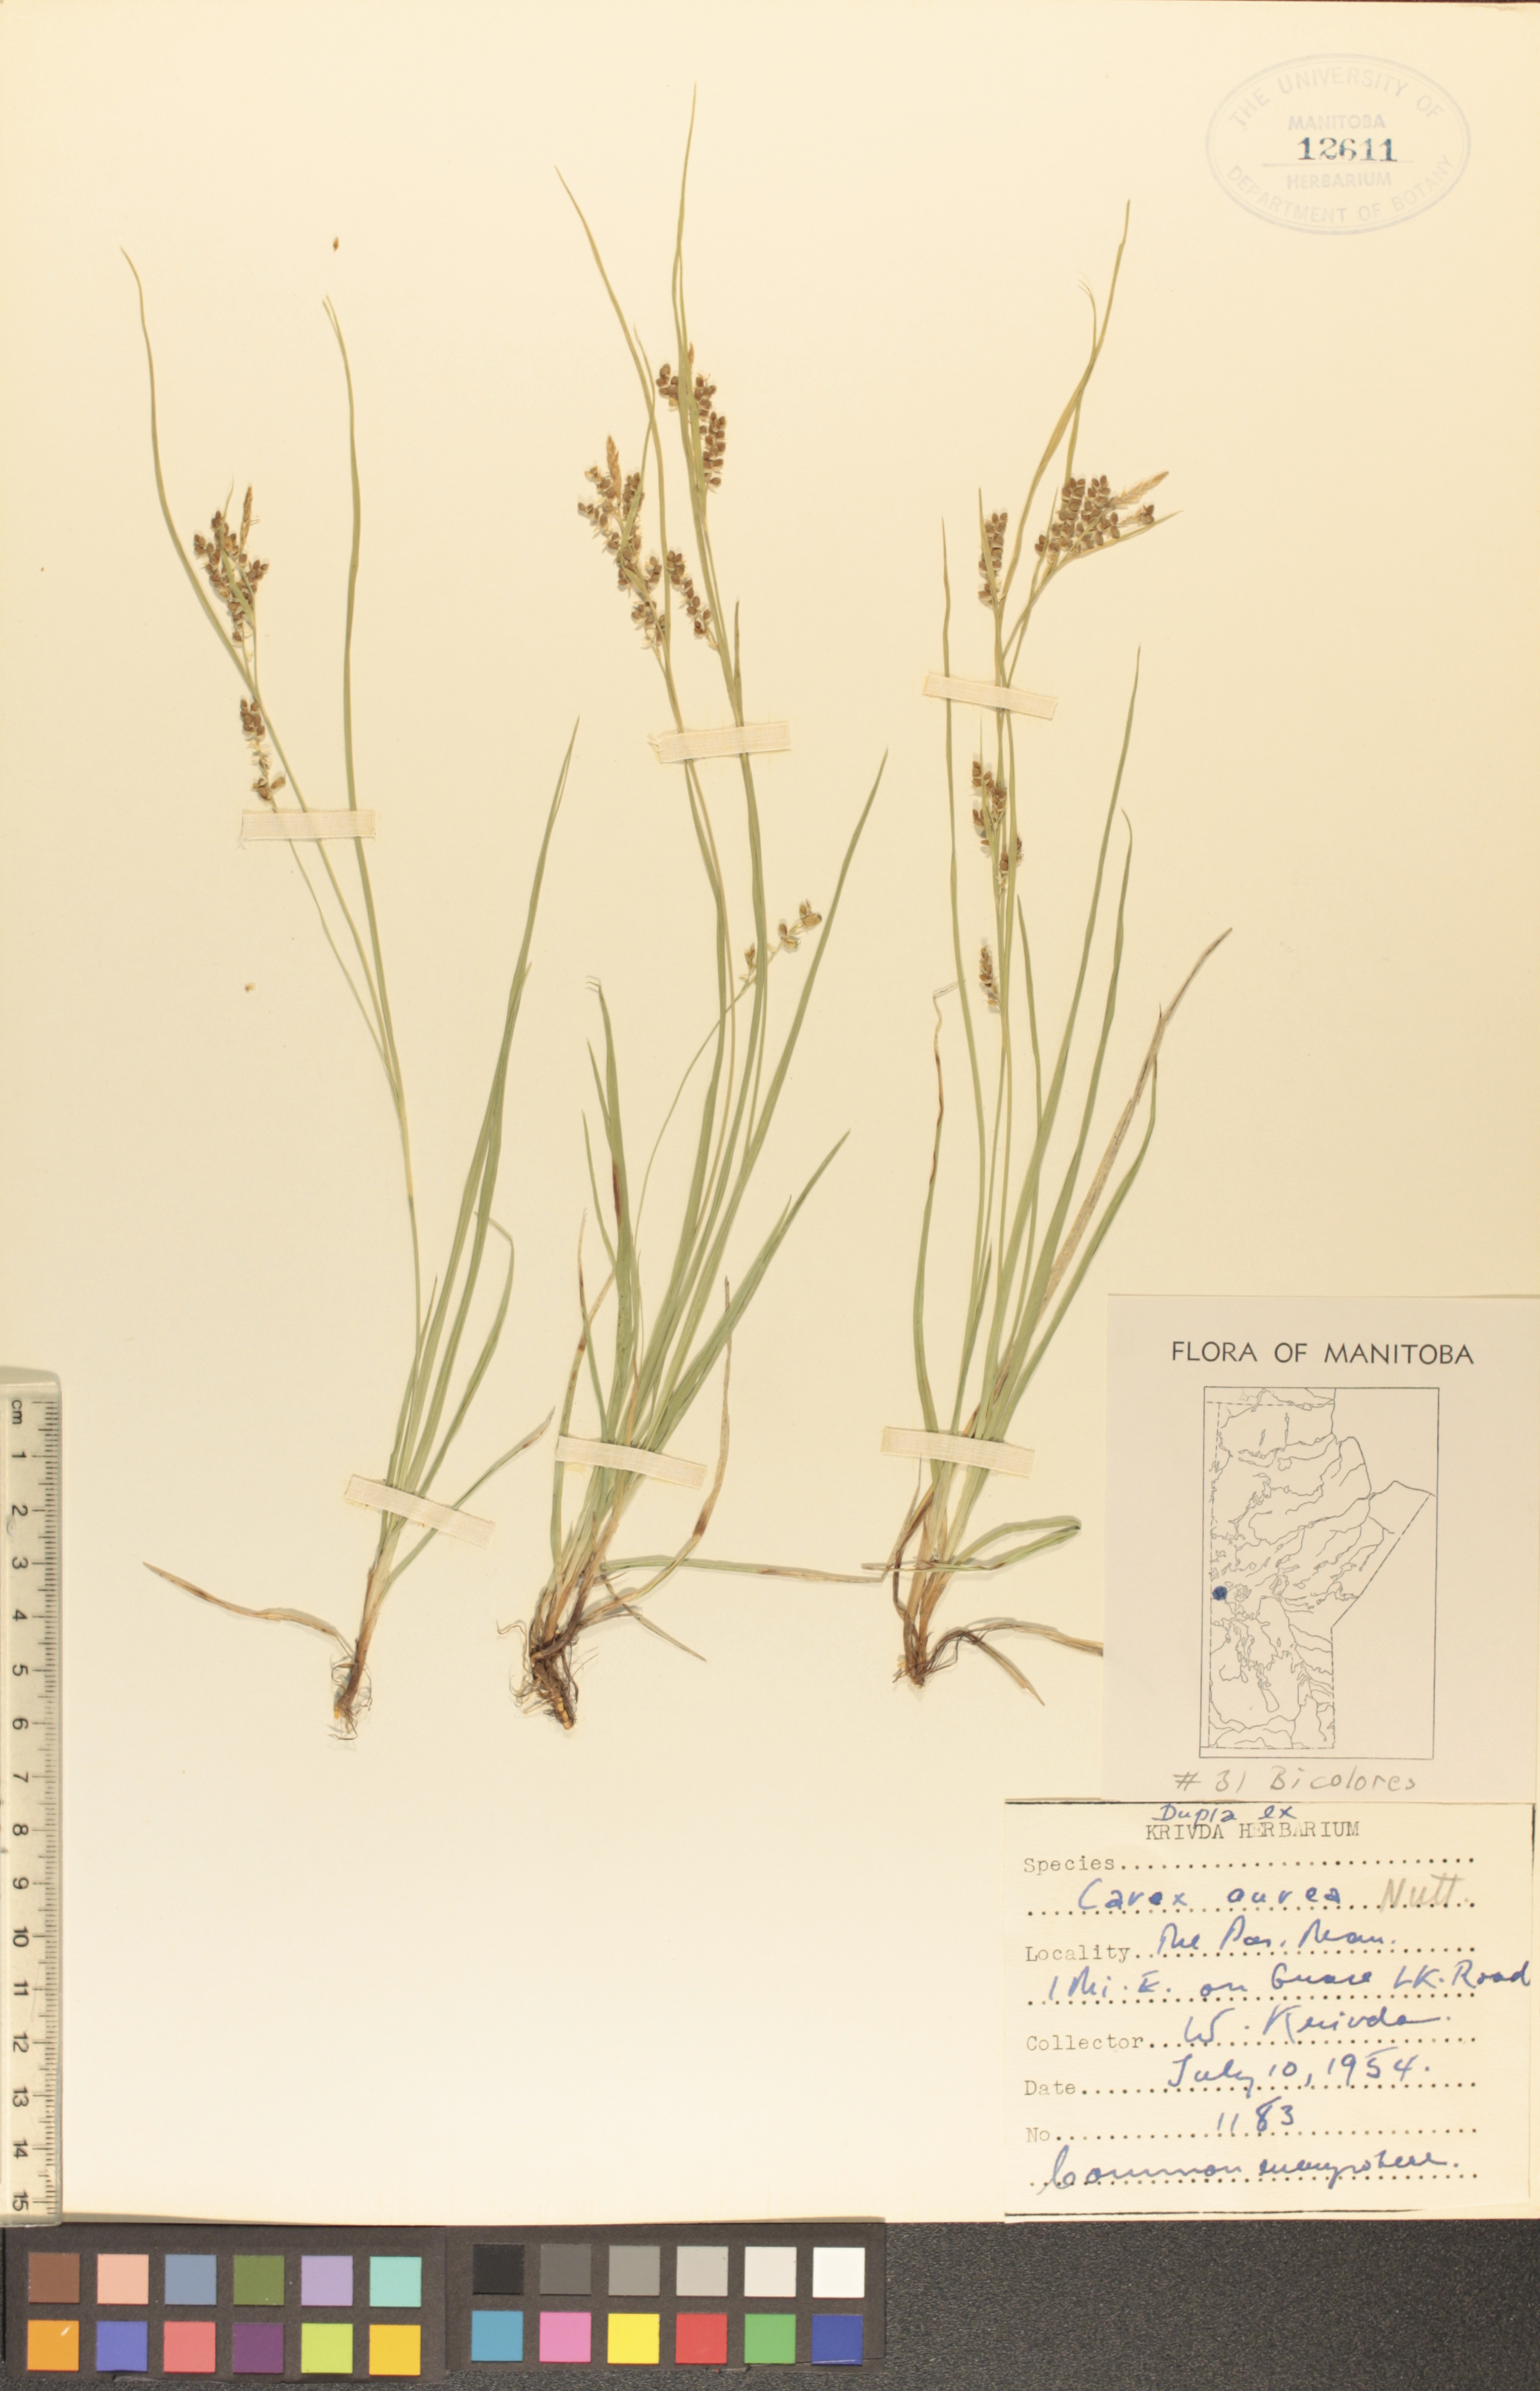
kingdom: Plantae
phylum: Tracheophyta
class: Liliopsida
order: Poales
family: Cyperaceae
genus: Carex
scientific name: Carex aurea
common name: Golden sedge
